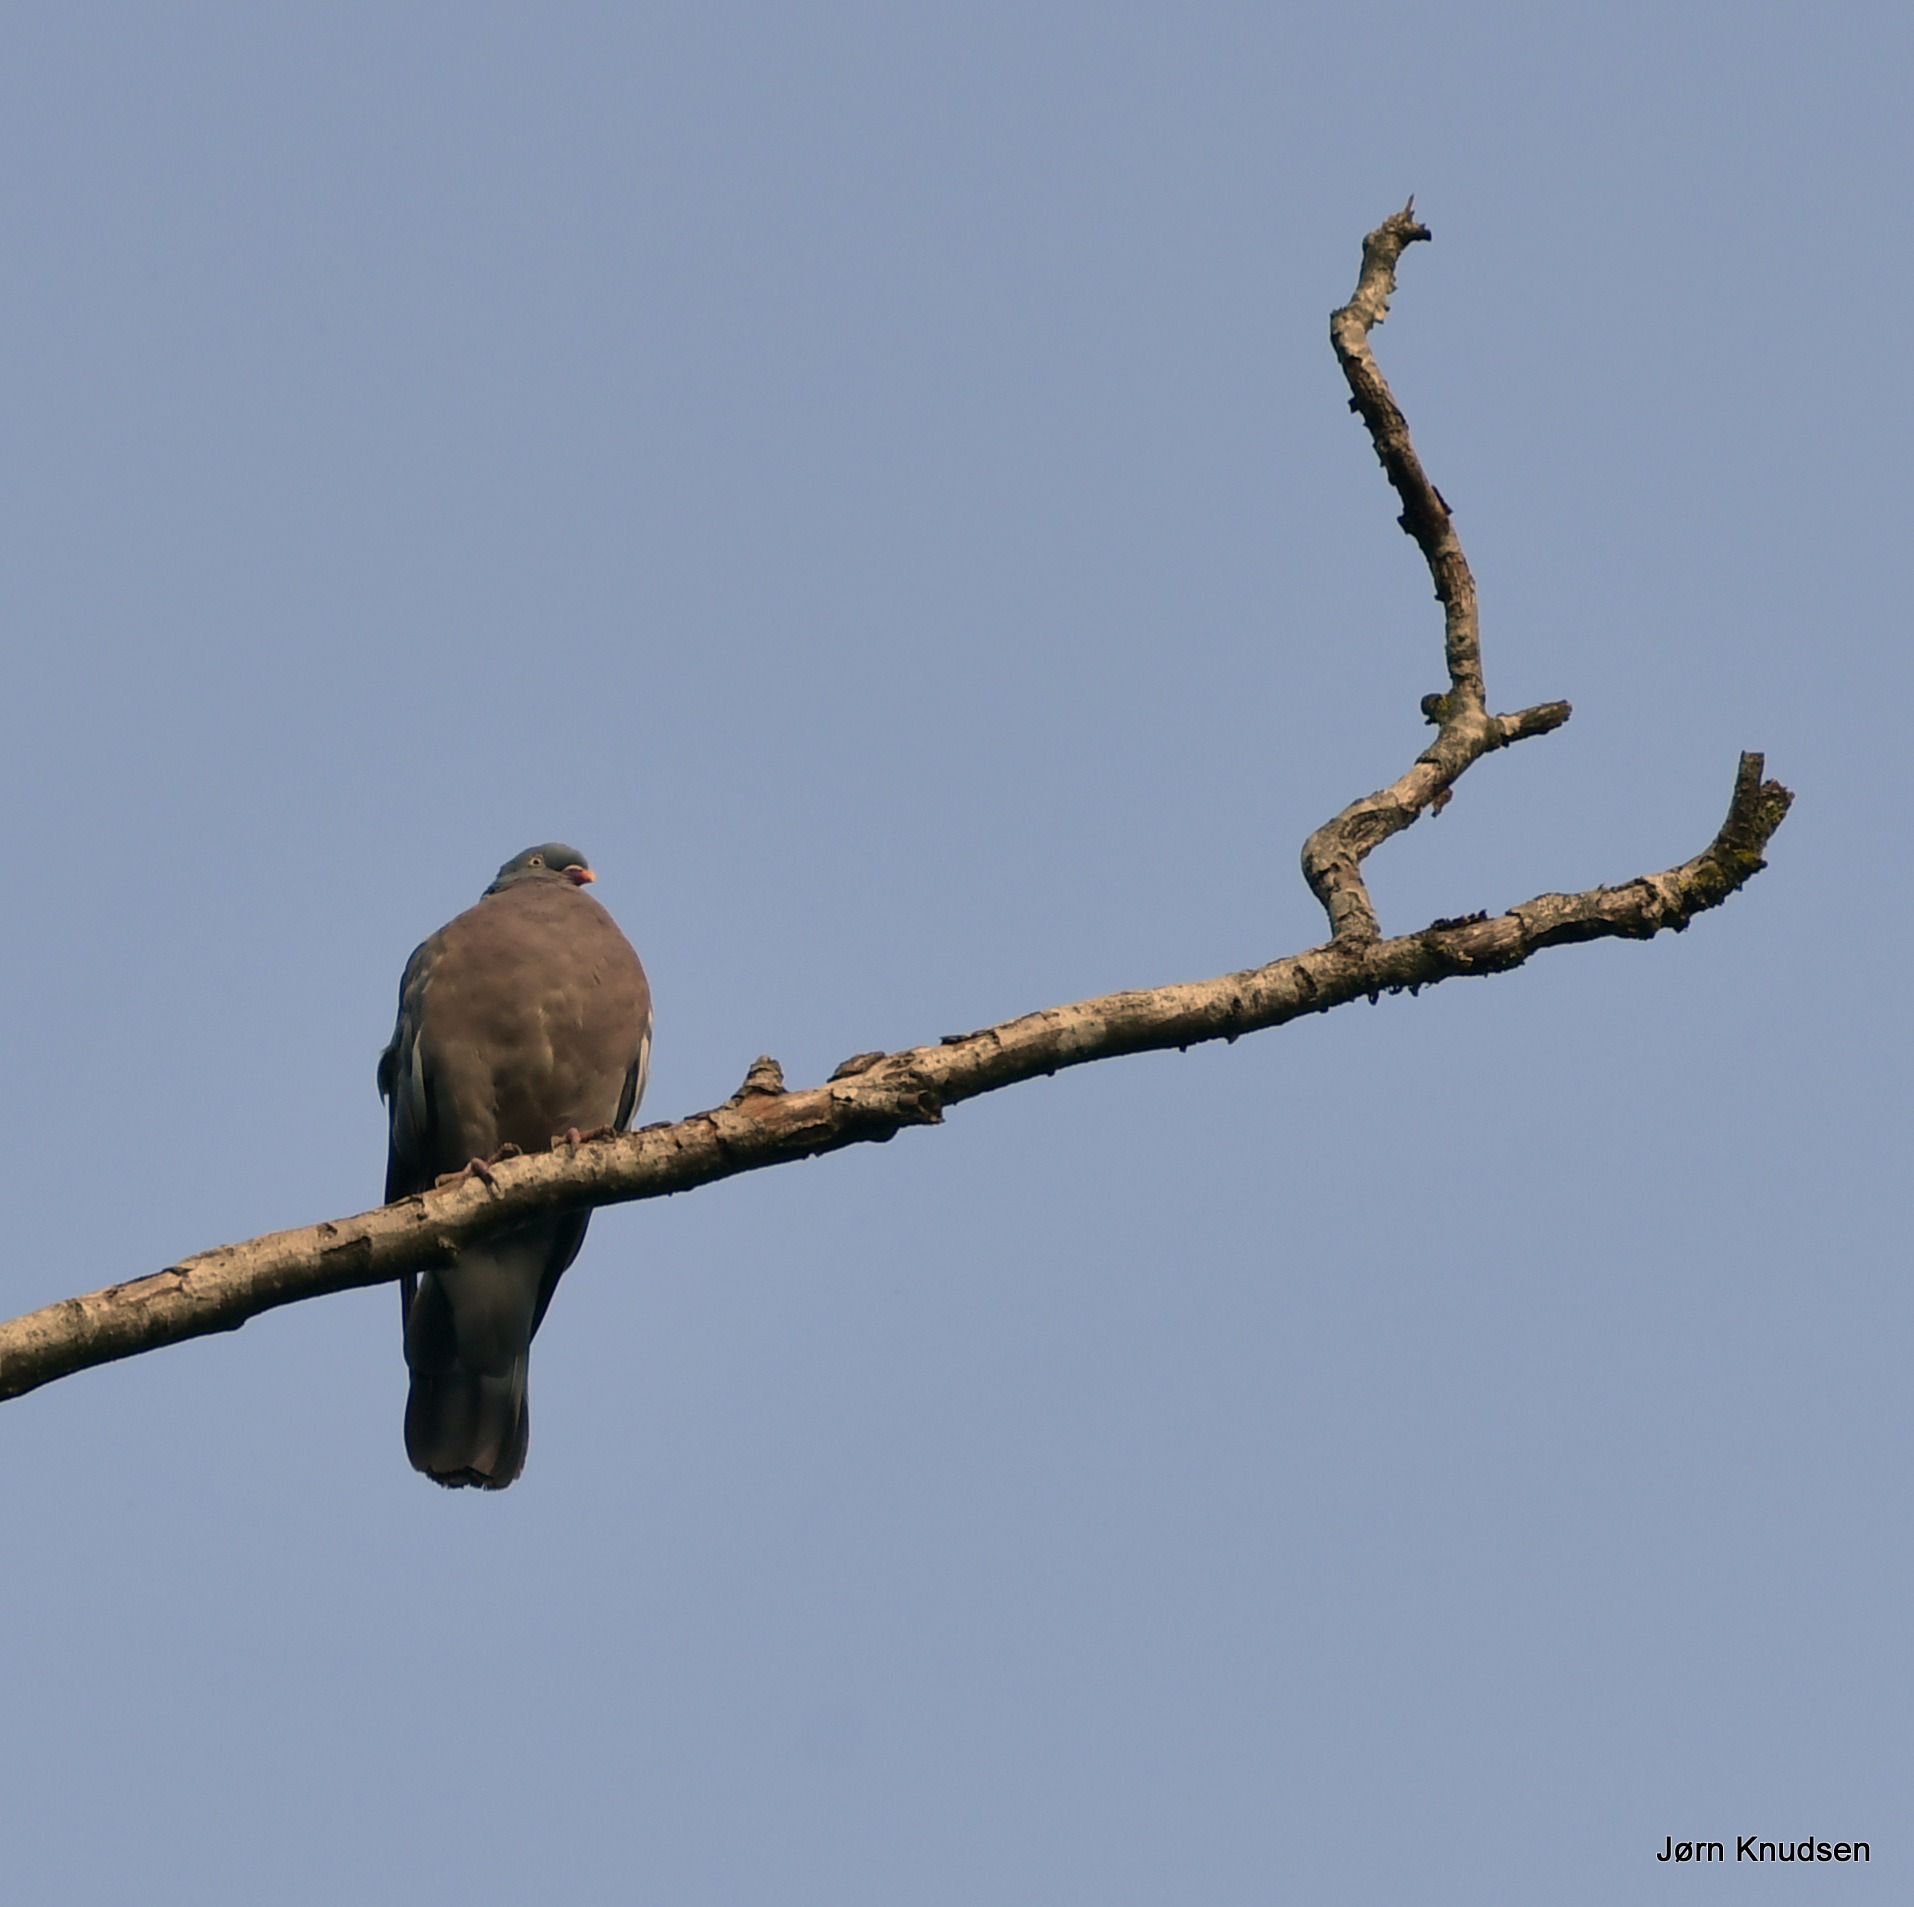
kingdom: Animalia
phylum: Chordata
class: Aves
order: Columbiformes
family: Columbidae
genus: Columba
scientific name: Columba palumbus
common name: Ringdue
